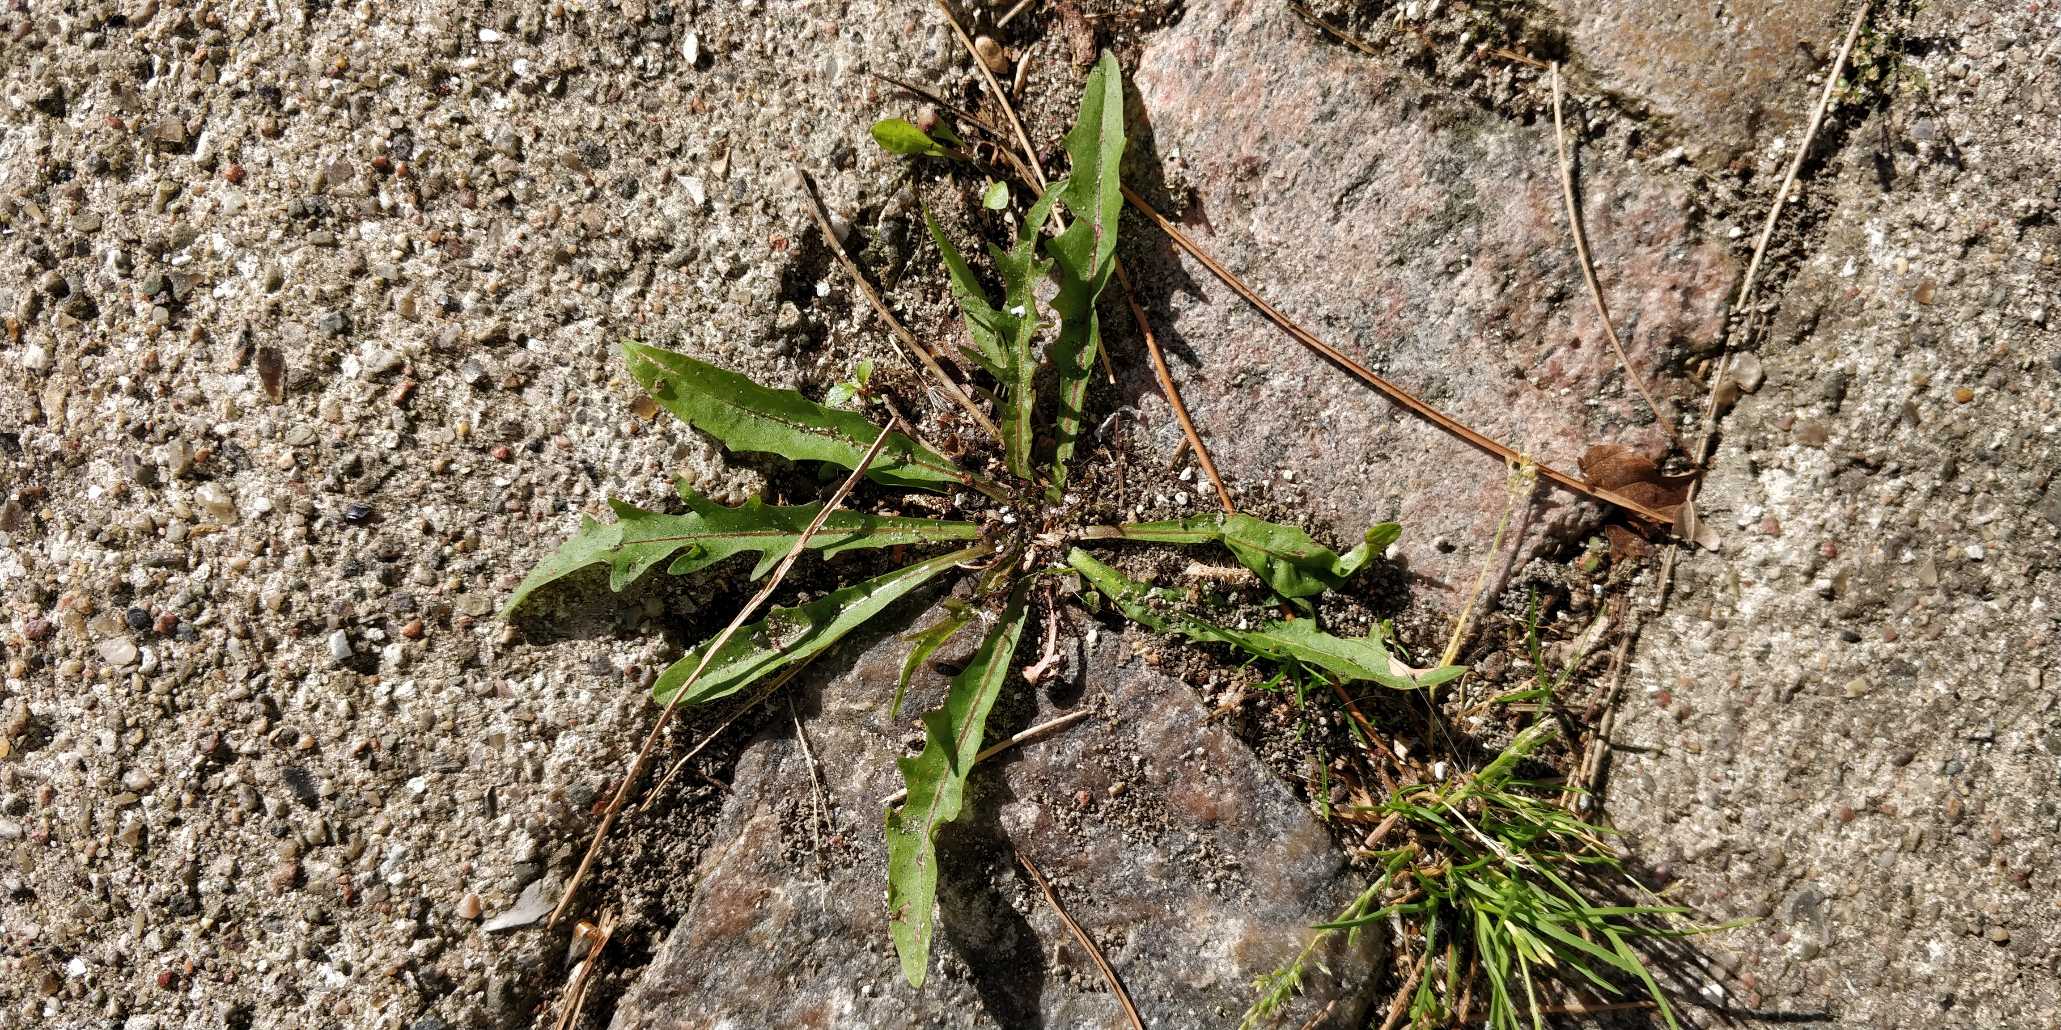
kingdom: Plantae
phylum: Tracheophyta
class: Magnoliopsida
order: Asterales
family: Asteraceae
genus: Scorzoneroides
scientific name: Scorzoneroides autumnalis
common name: Høst-borst
